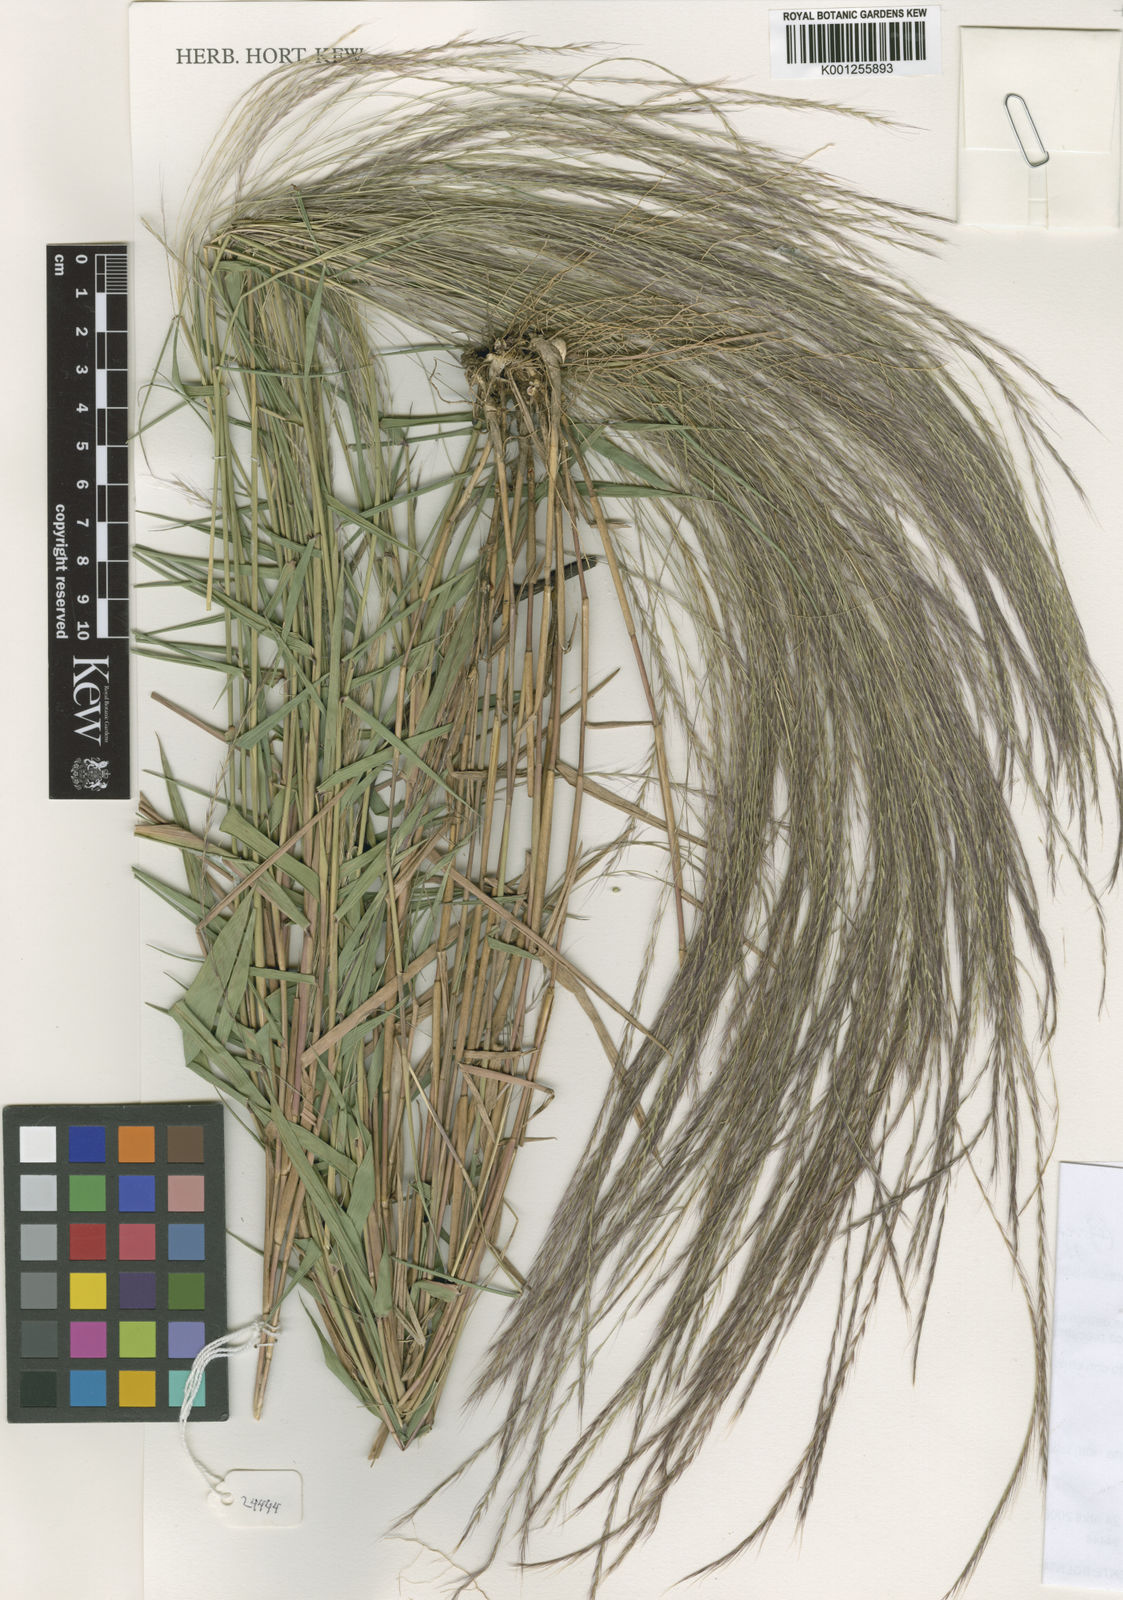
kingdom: Plantae
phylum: Tracheophyta
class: Liliopsida
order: Poales
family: Poaceae
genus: Gymnopogon
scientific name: Gymnopogon spicatus
